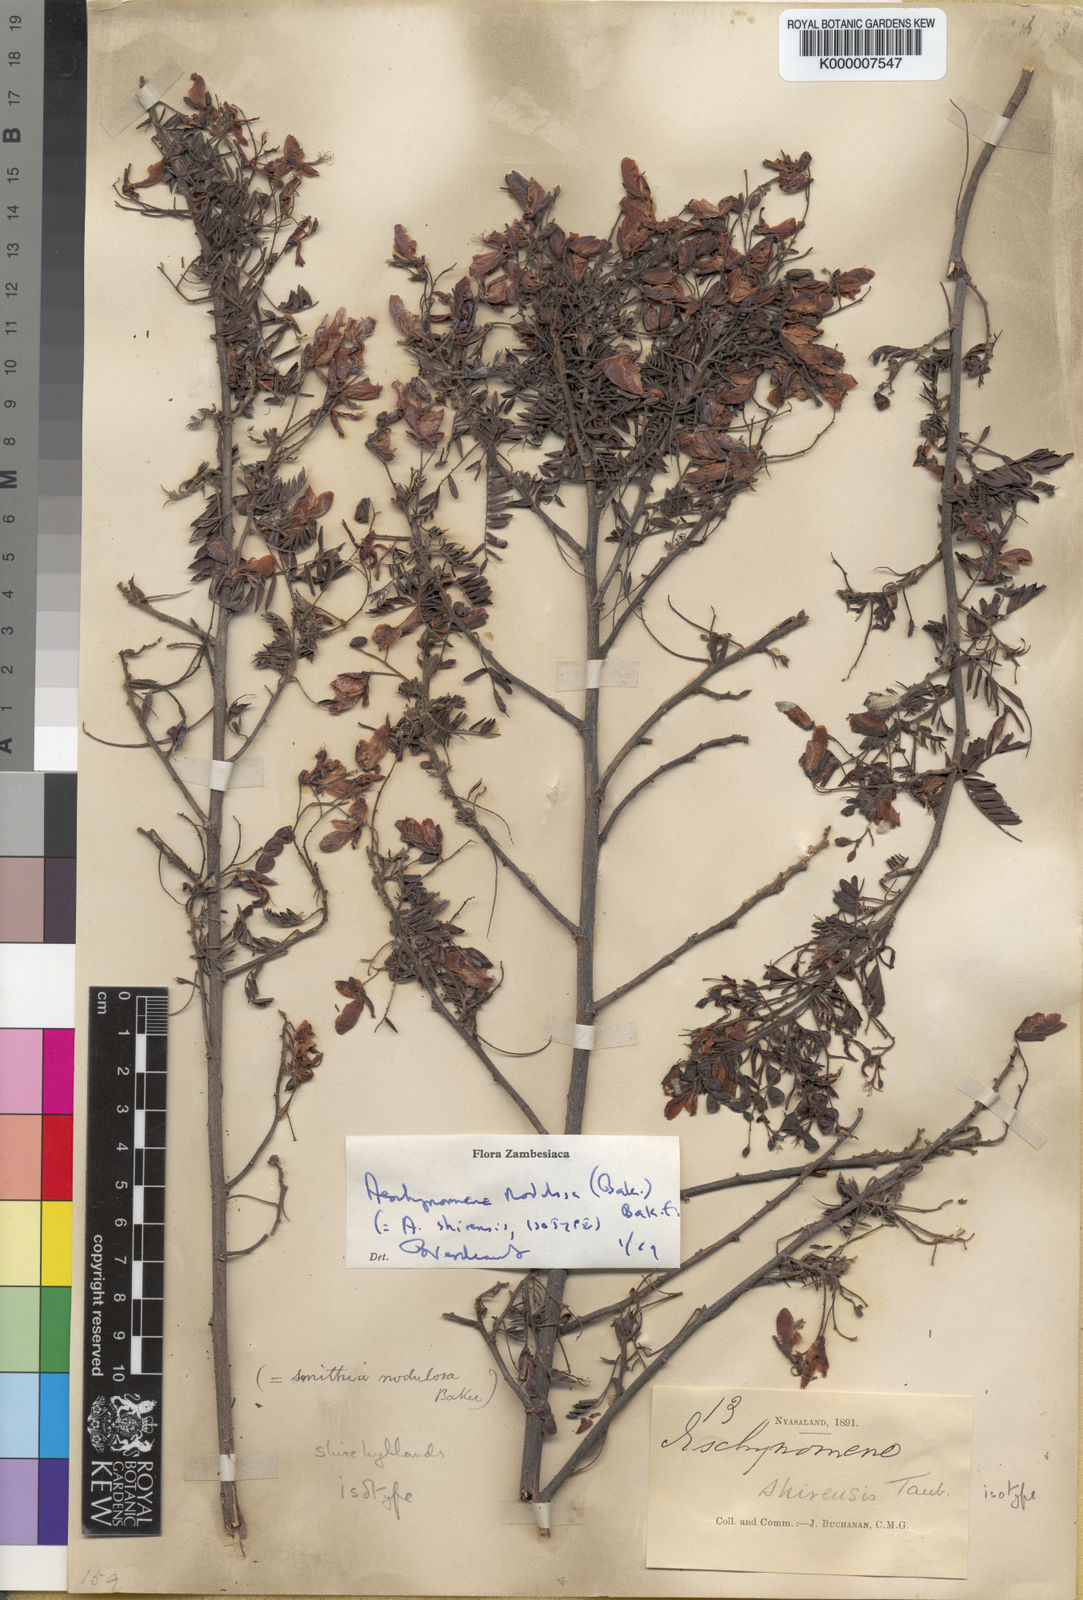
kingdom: Plantae
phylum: Tracheophyta
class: Magnoliopsida
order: Fabales
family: Fabaceae
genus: Aeschynomene
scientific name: Aeschynomene nodulosa
